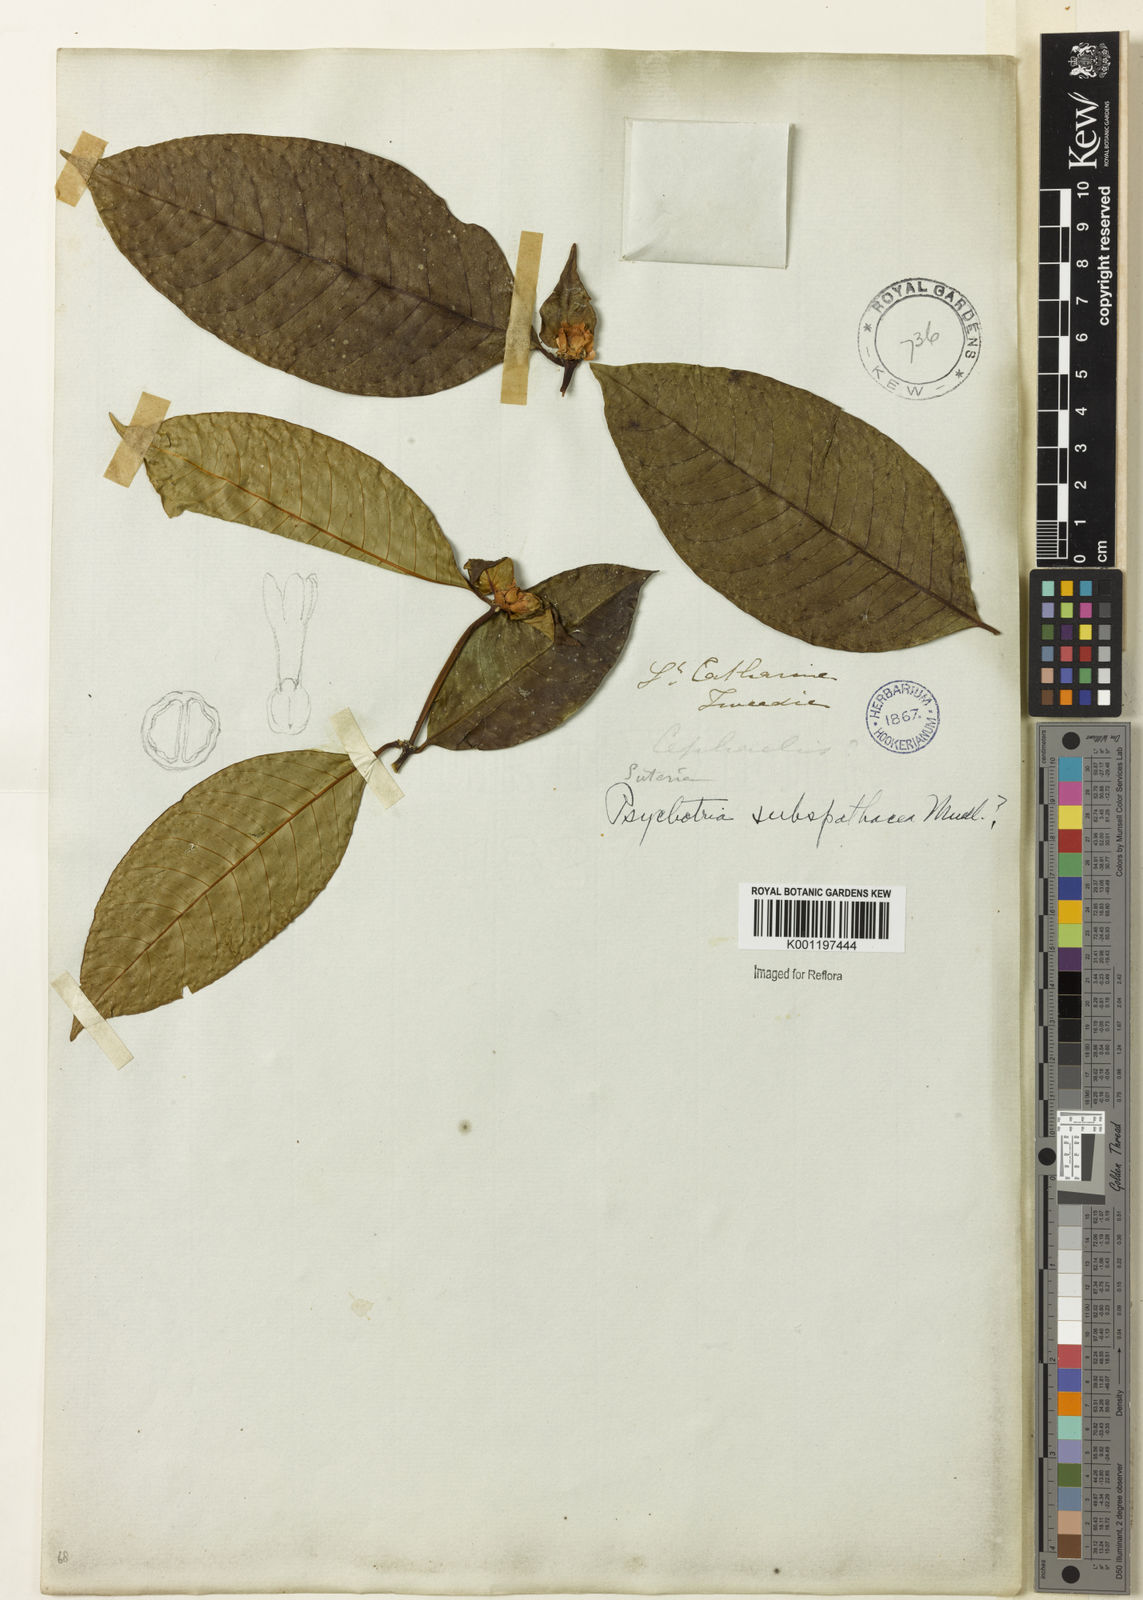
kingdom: Plantae
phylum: Tracheophyta
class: Magnoliopsida
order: Gentianales
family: Rubiaceae
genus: Psychotria
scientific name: Psychotria
